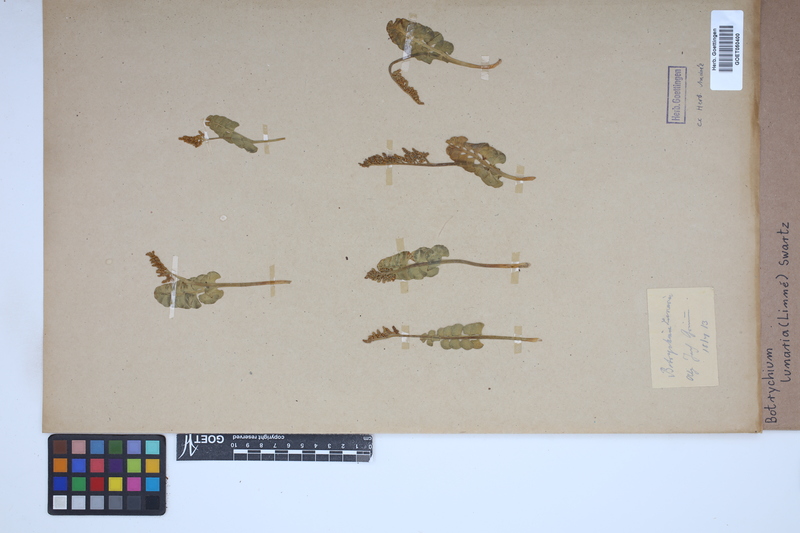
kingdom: Plantae
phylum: Tracheophyta
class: Polypodiopsida
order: Ophioglossales
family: Ophioglossaceae
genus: Botrychium
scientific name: Botrychium lunaria
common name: Moonwort
